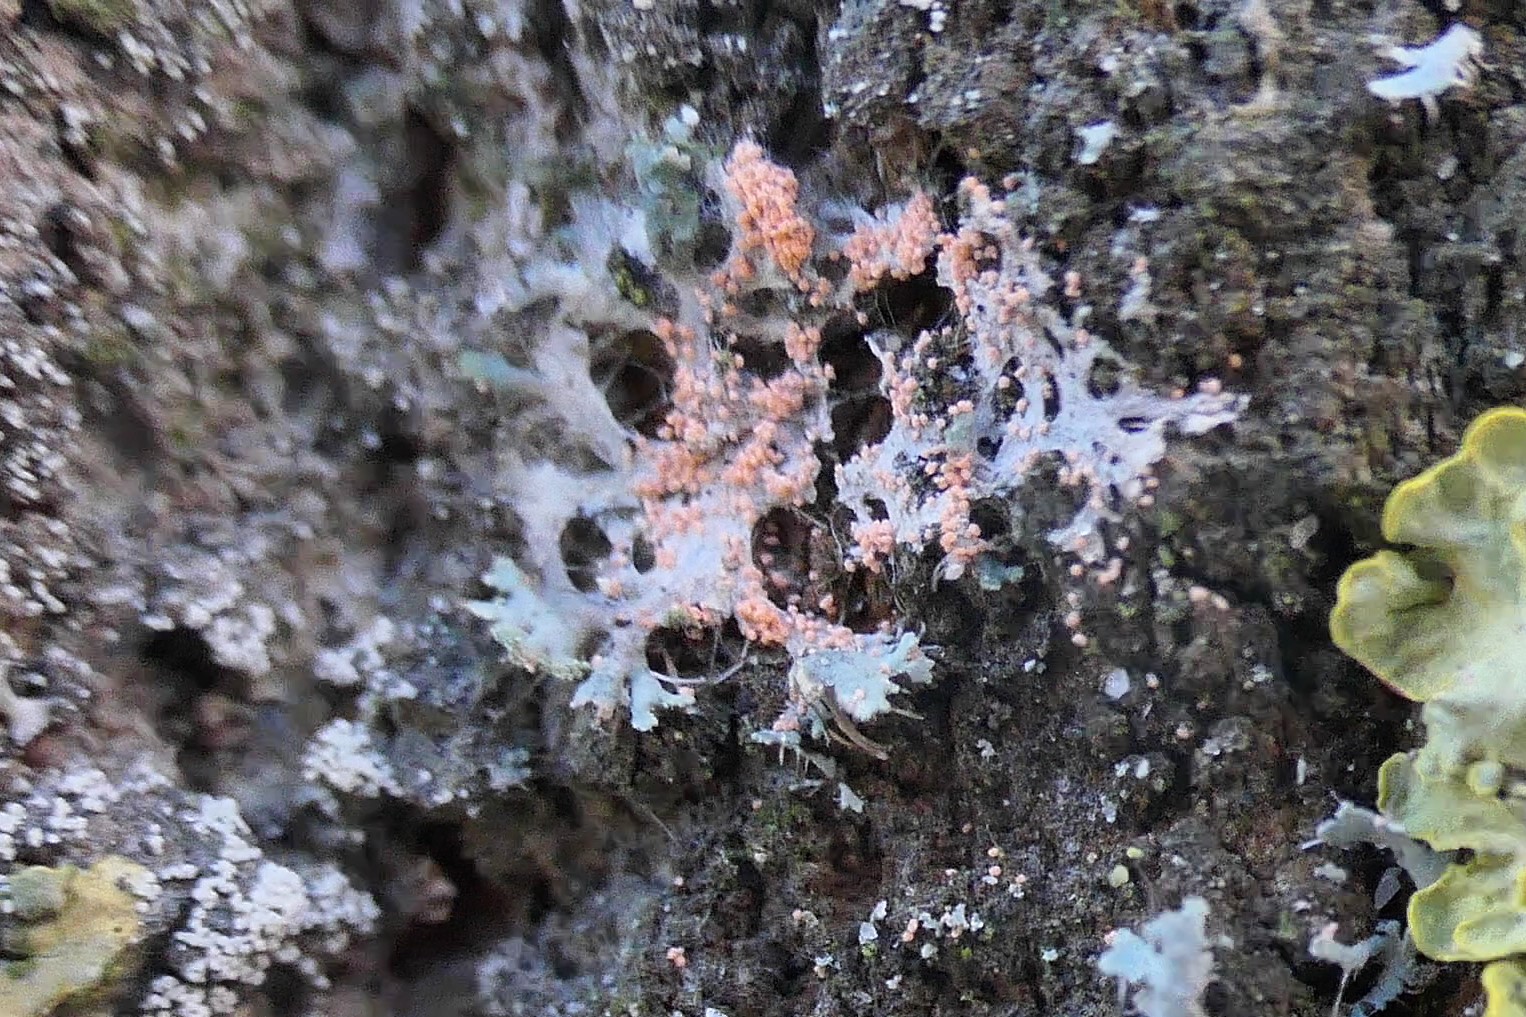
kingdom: Fungi
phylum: Basidiomycota
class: Agaricomycetes
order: Corticiales
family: Corticiaceae
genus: Erythricium
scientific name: Erythricium aurantiacum
